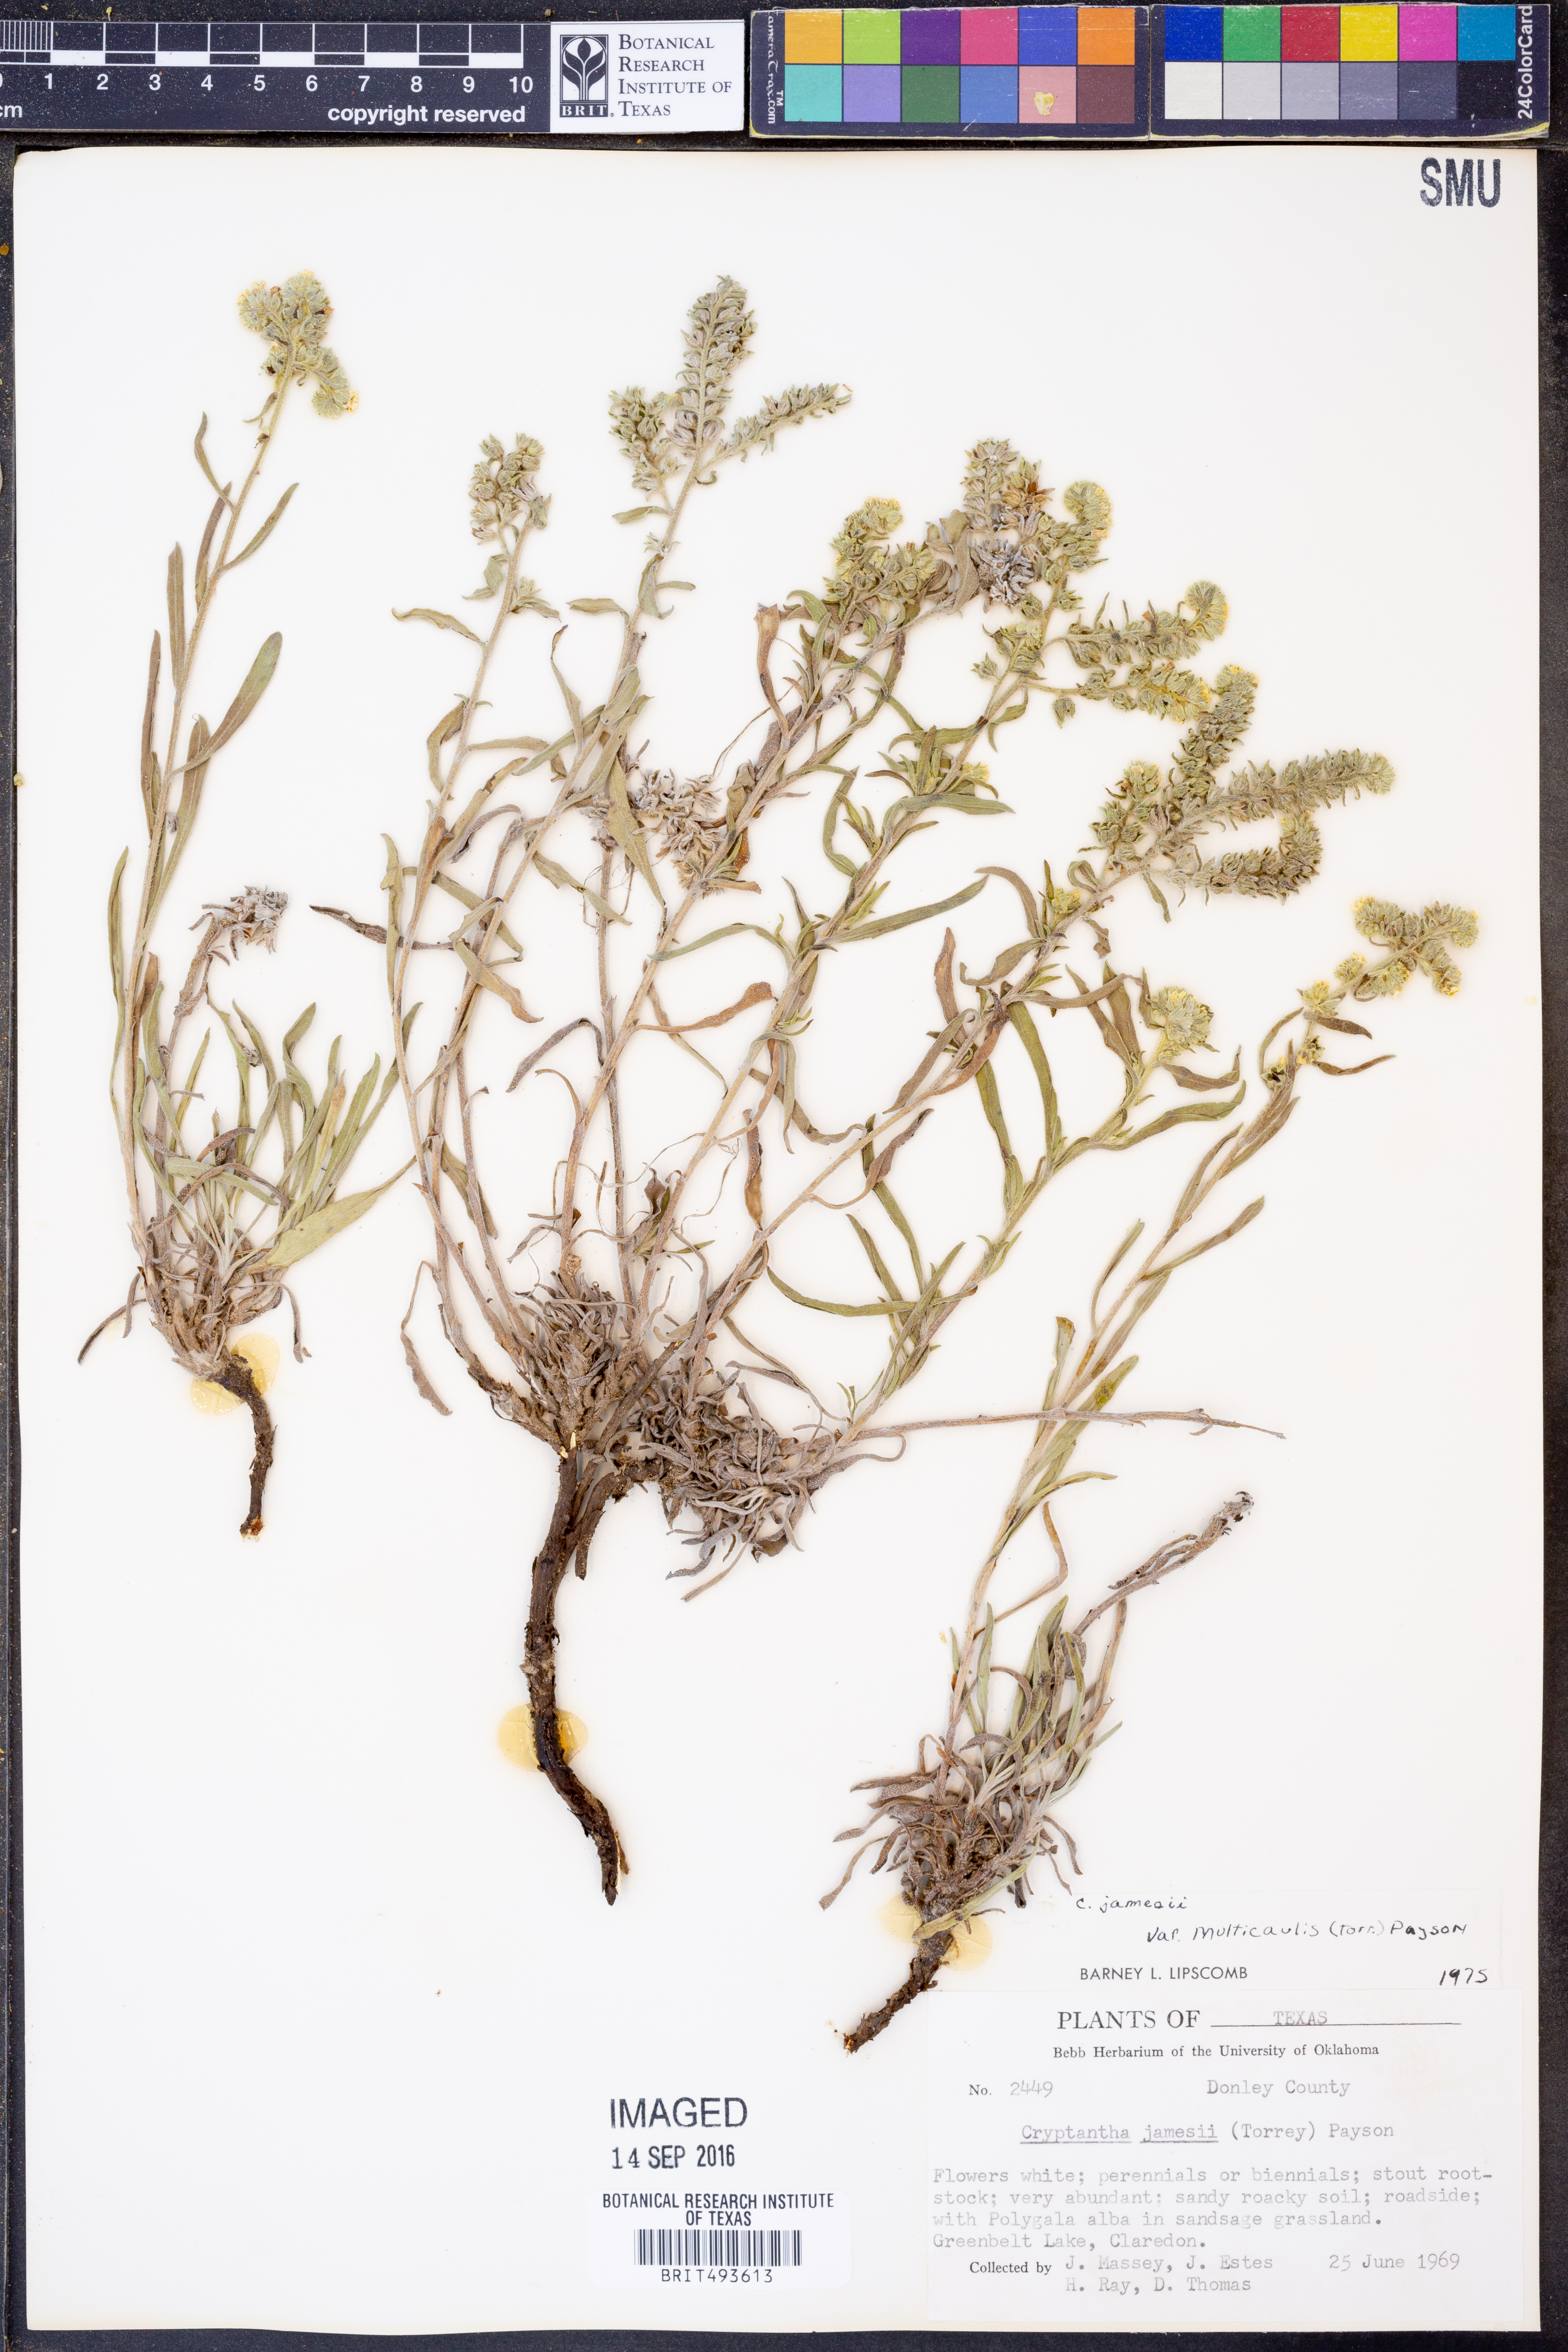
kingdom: Plantae
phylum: Tracheophyta
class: Magnoliopsida
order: Boraginales
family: Boraginaceae
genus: Oreocarya
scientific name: Oreocarya suffruticosa
